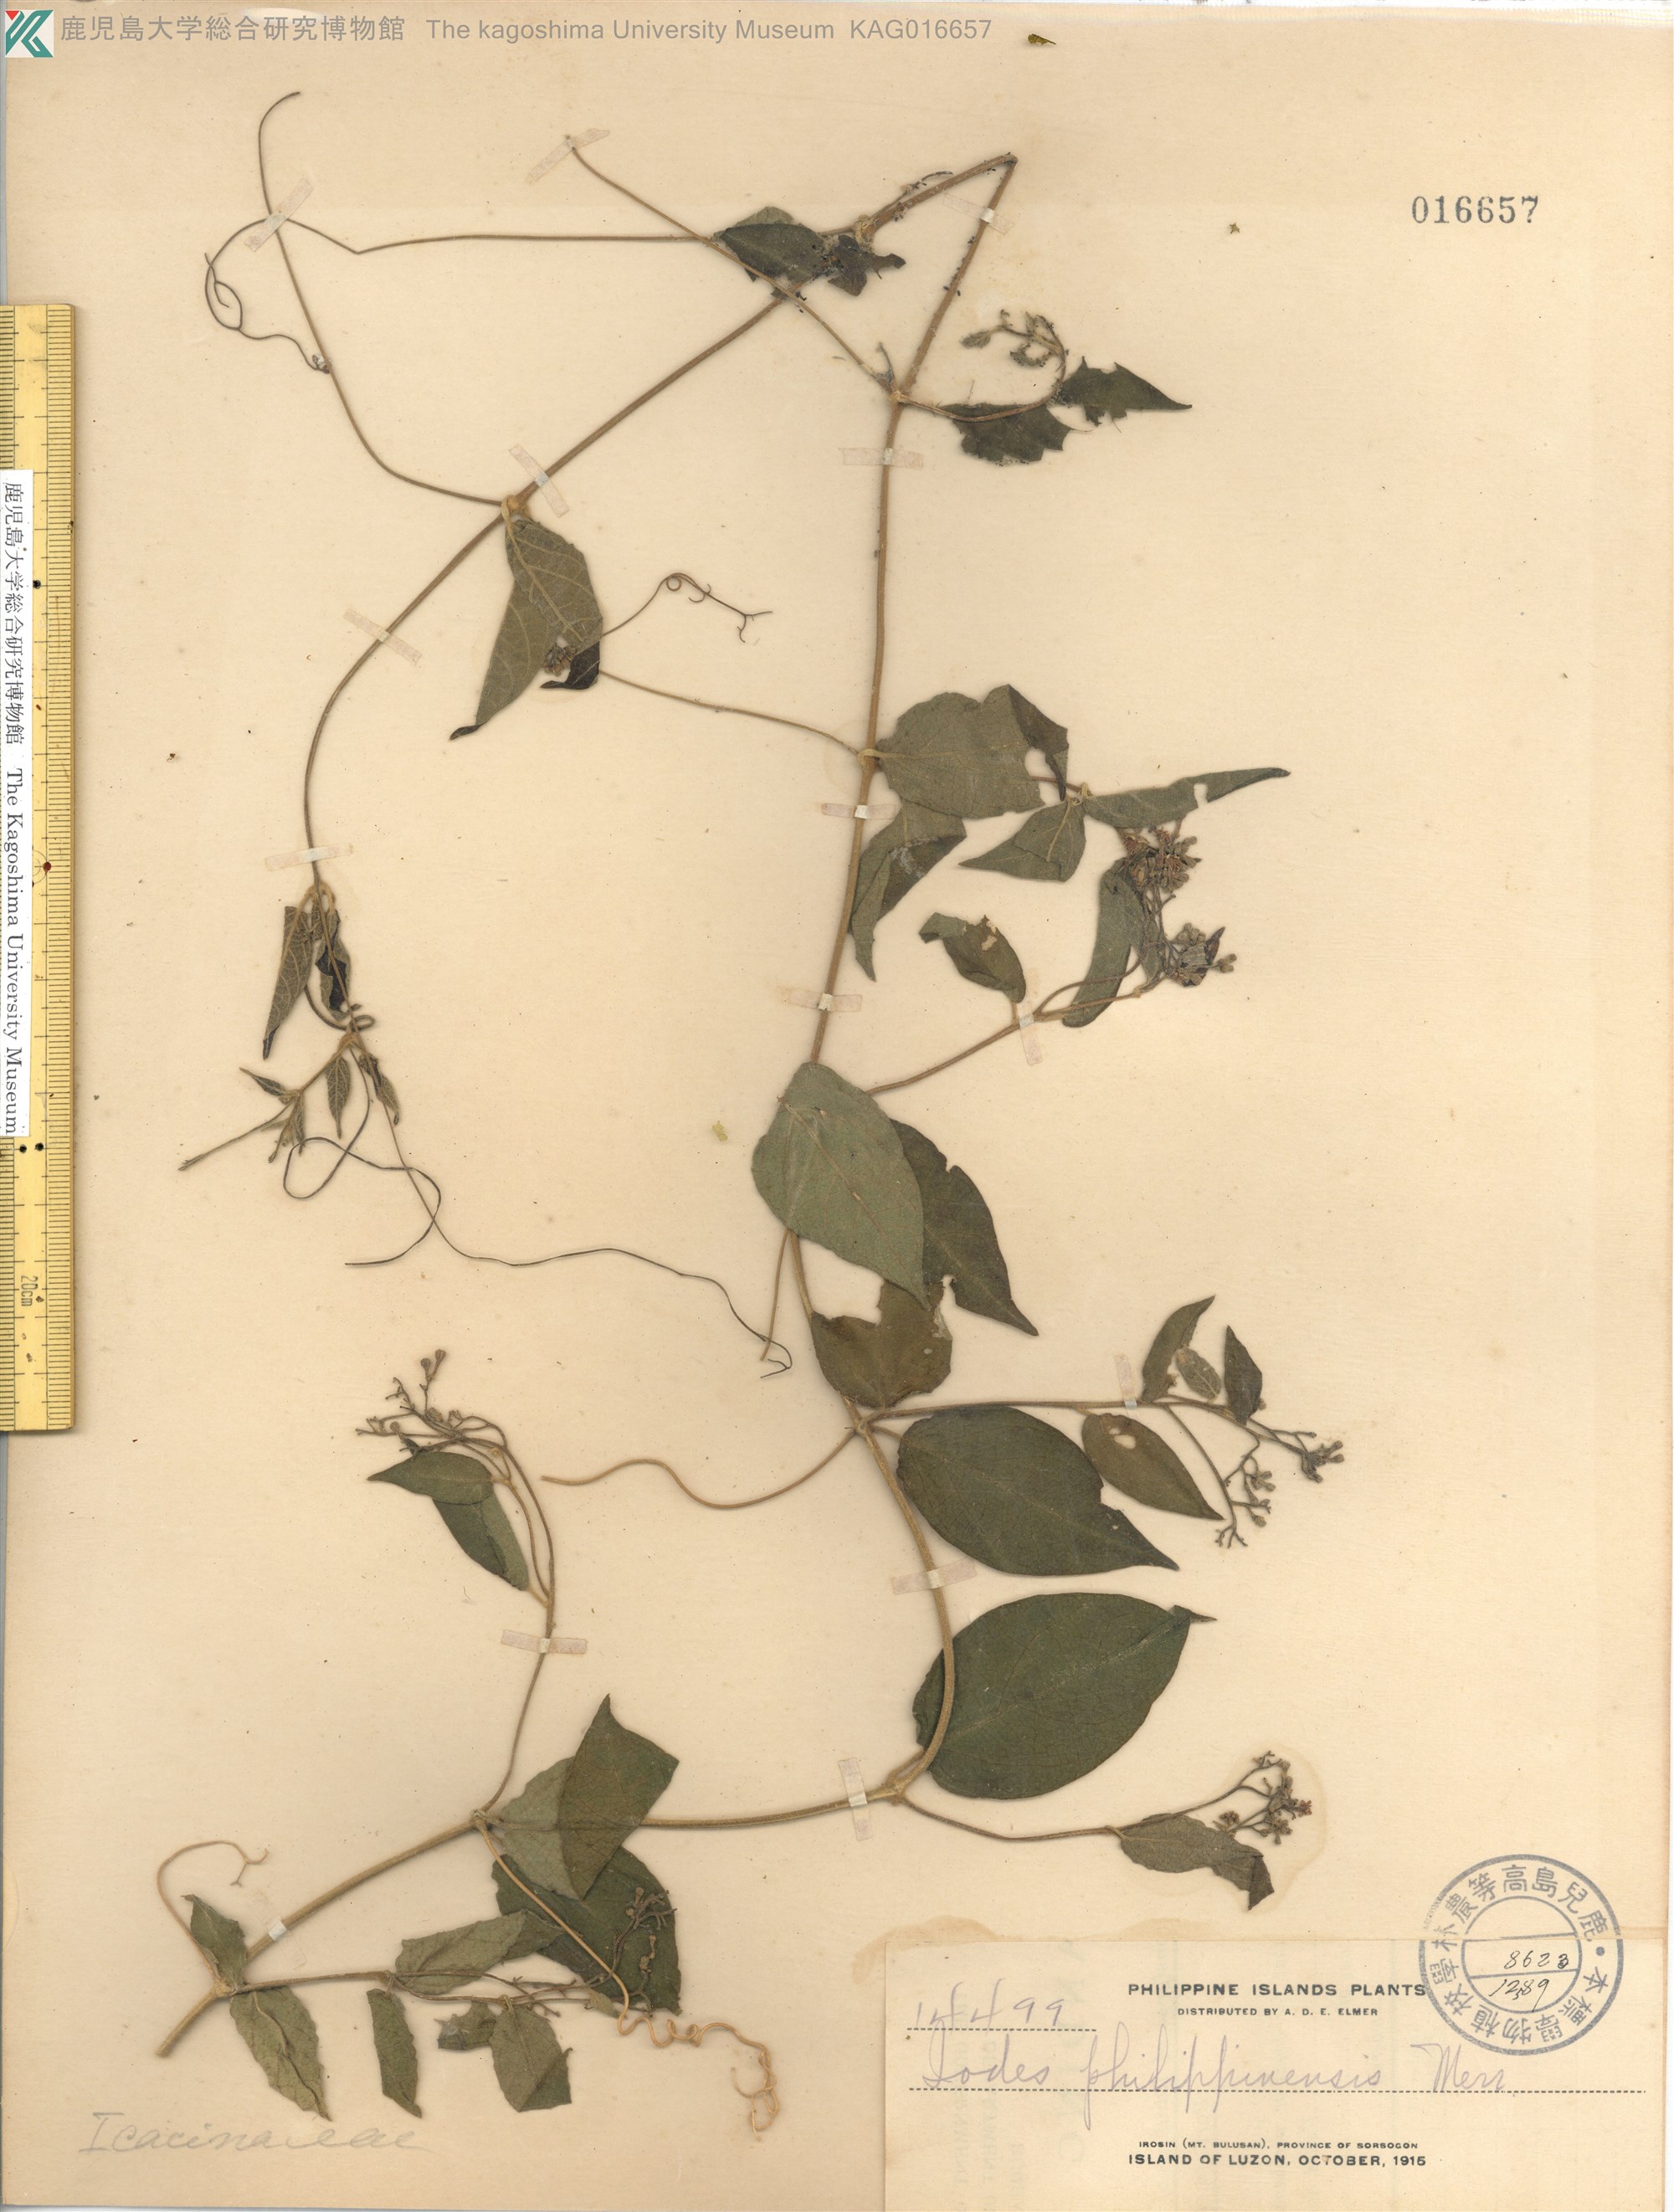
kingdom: Plantae
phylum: Tracheophyta
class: Magnoliopsida
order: Icacinales
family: Icacinaceae
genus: Iodes
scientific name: Iodes philippinensis
